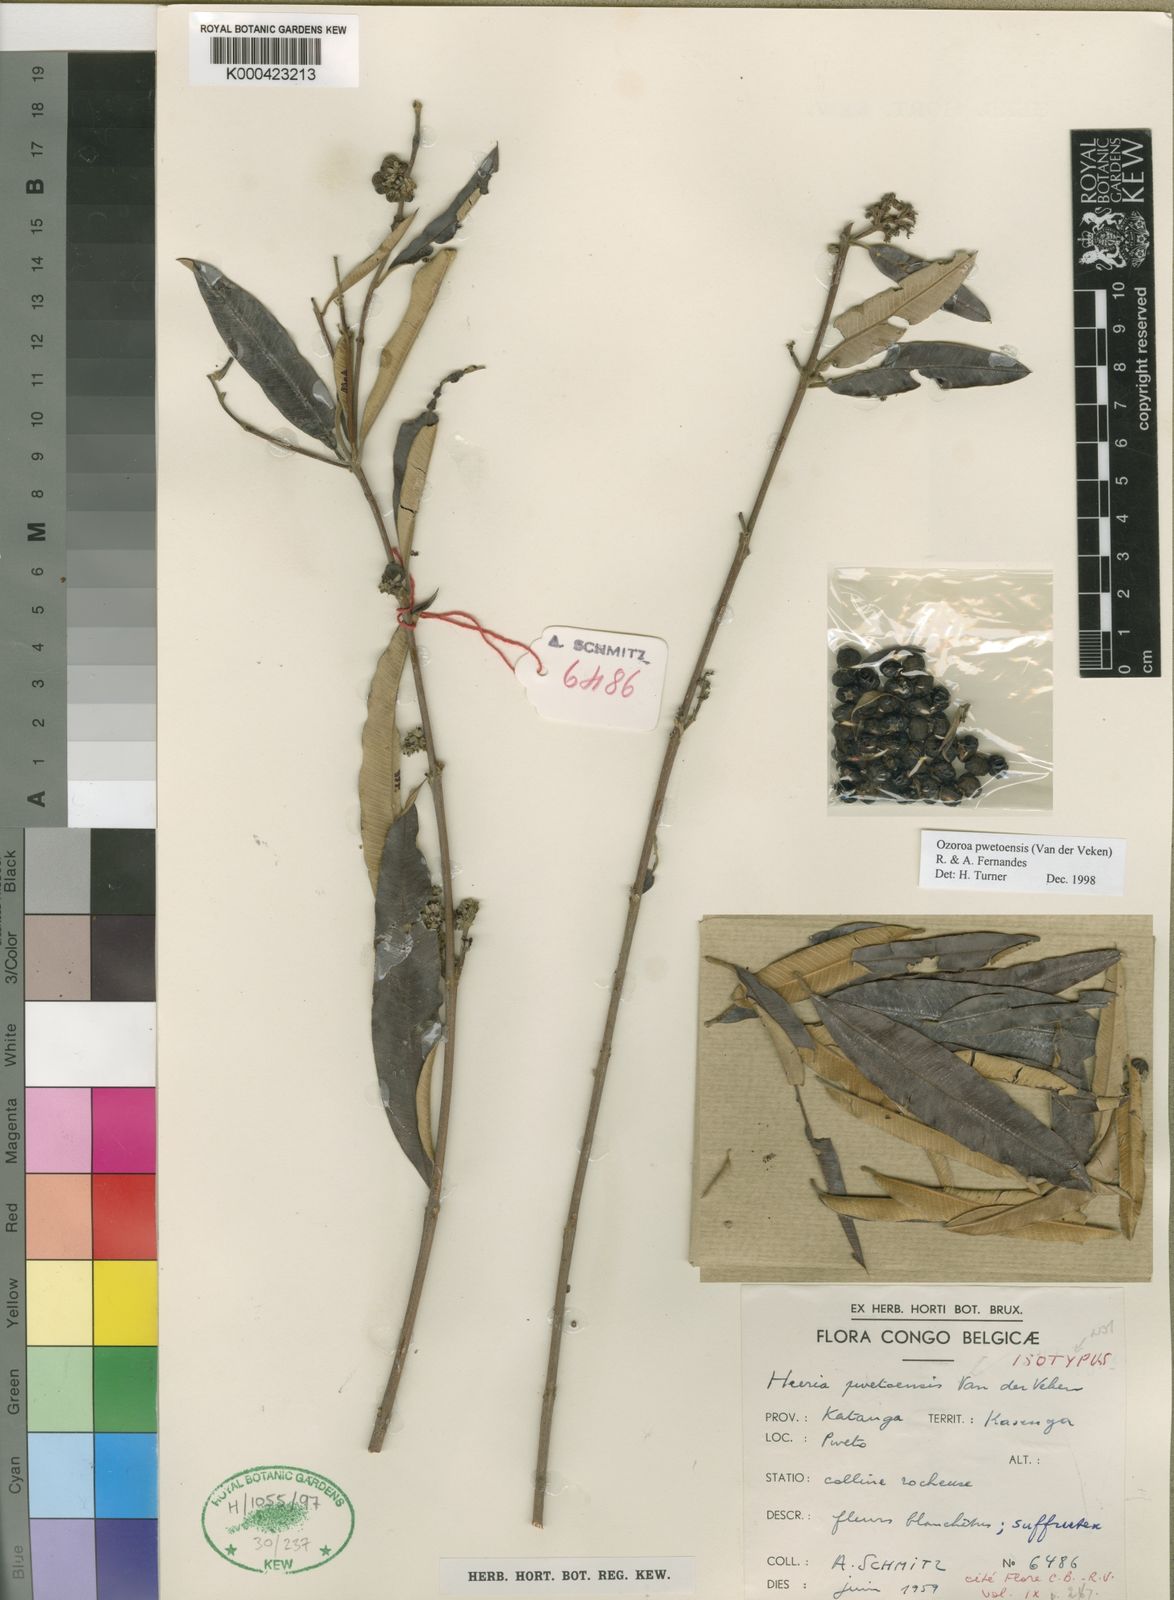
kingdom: Plantae
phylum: Tracheophyta
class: Magnoliopsida
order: Sapindales
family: Anacardiaceae
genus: Ozoroa
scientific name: Ozoroa pwetoensis
